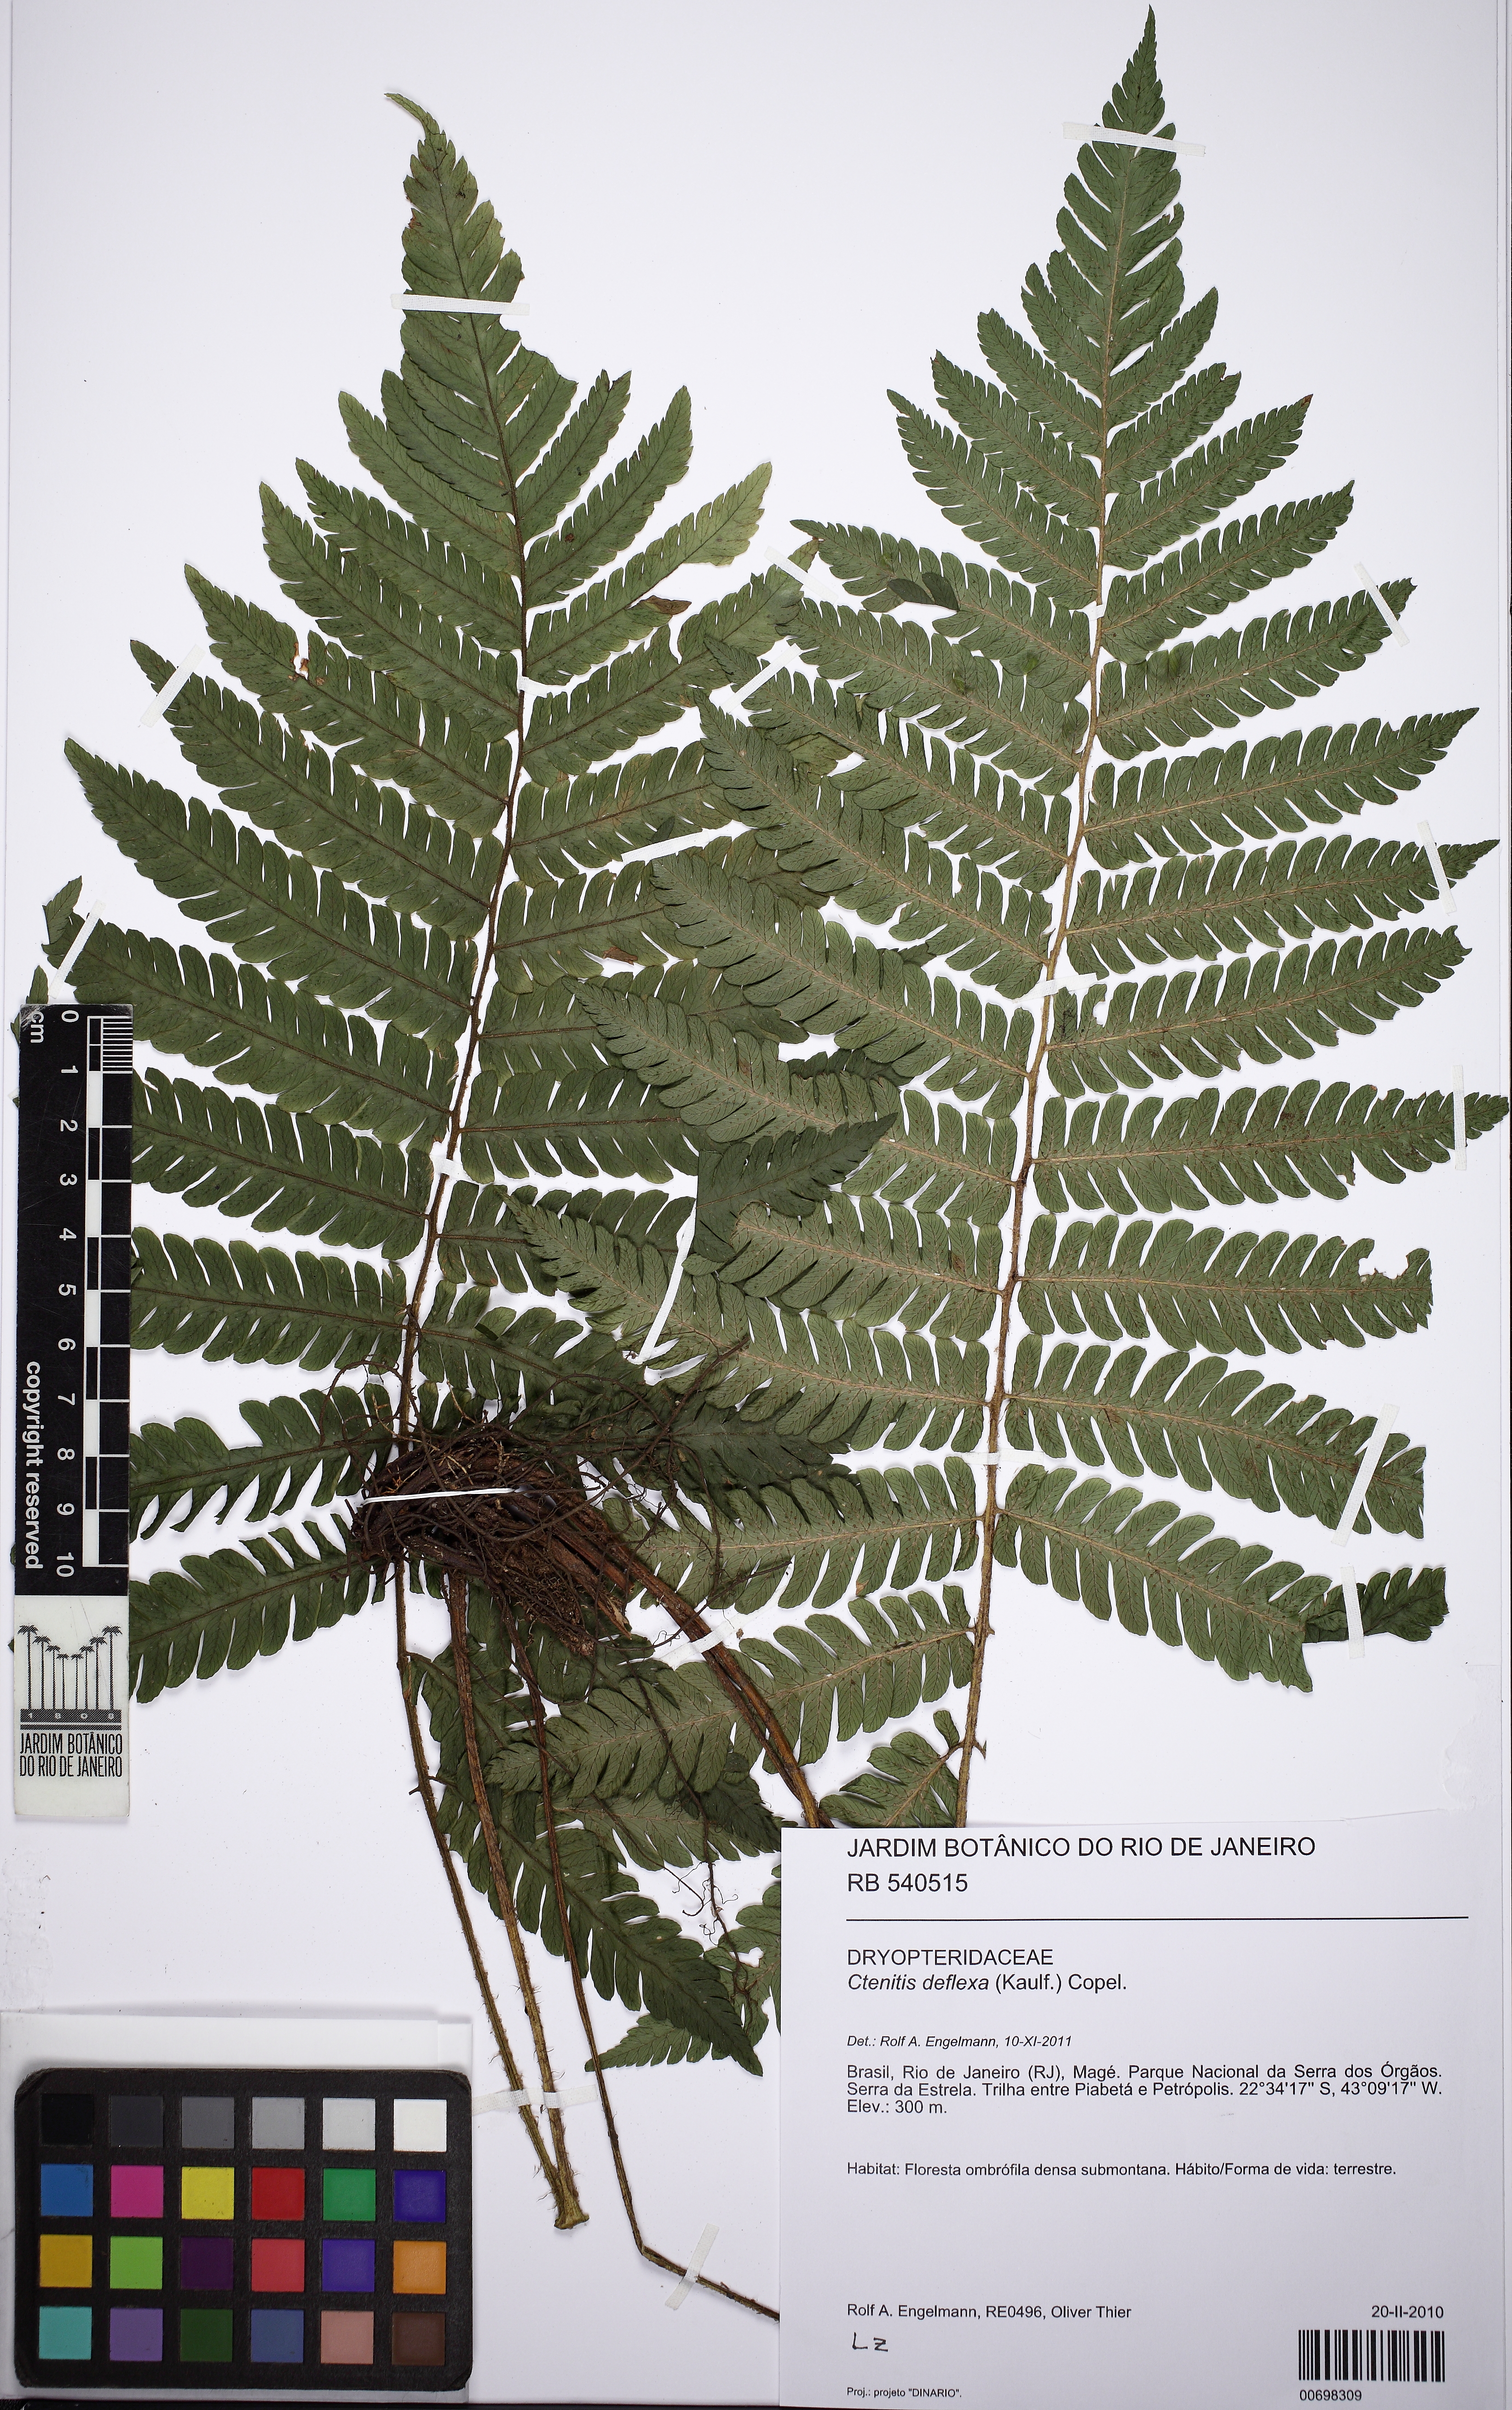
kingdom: Plantae
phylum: Tracheophyta
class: Polypodiopsida
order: Polypodiales
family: Dryopteridaceae
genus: Ctenitis
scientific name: Ctenitis deflexa
